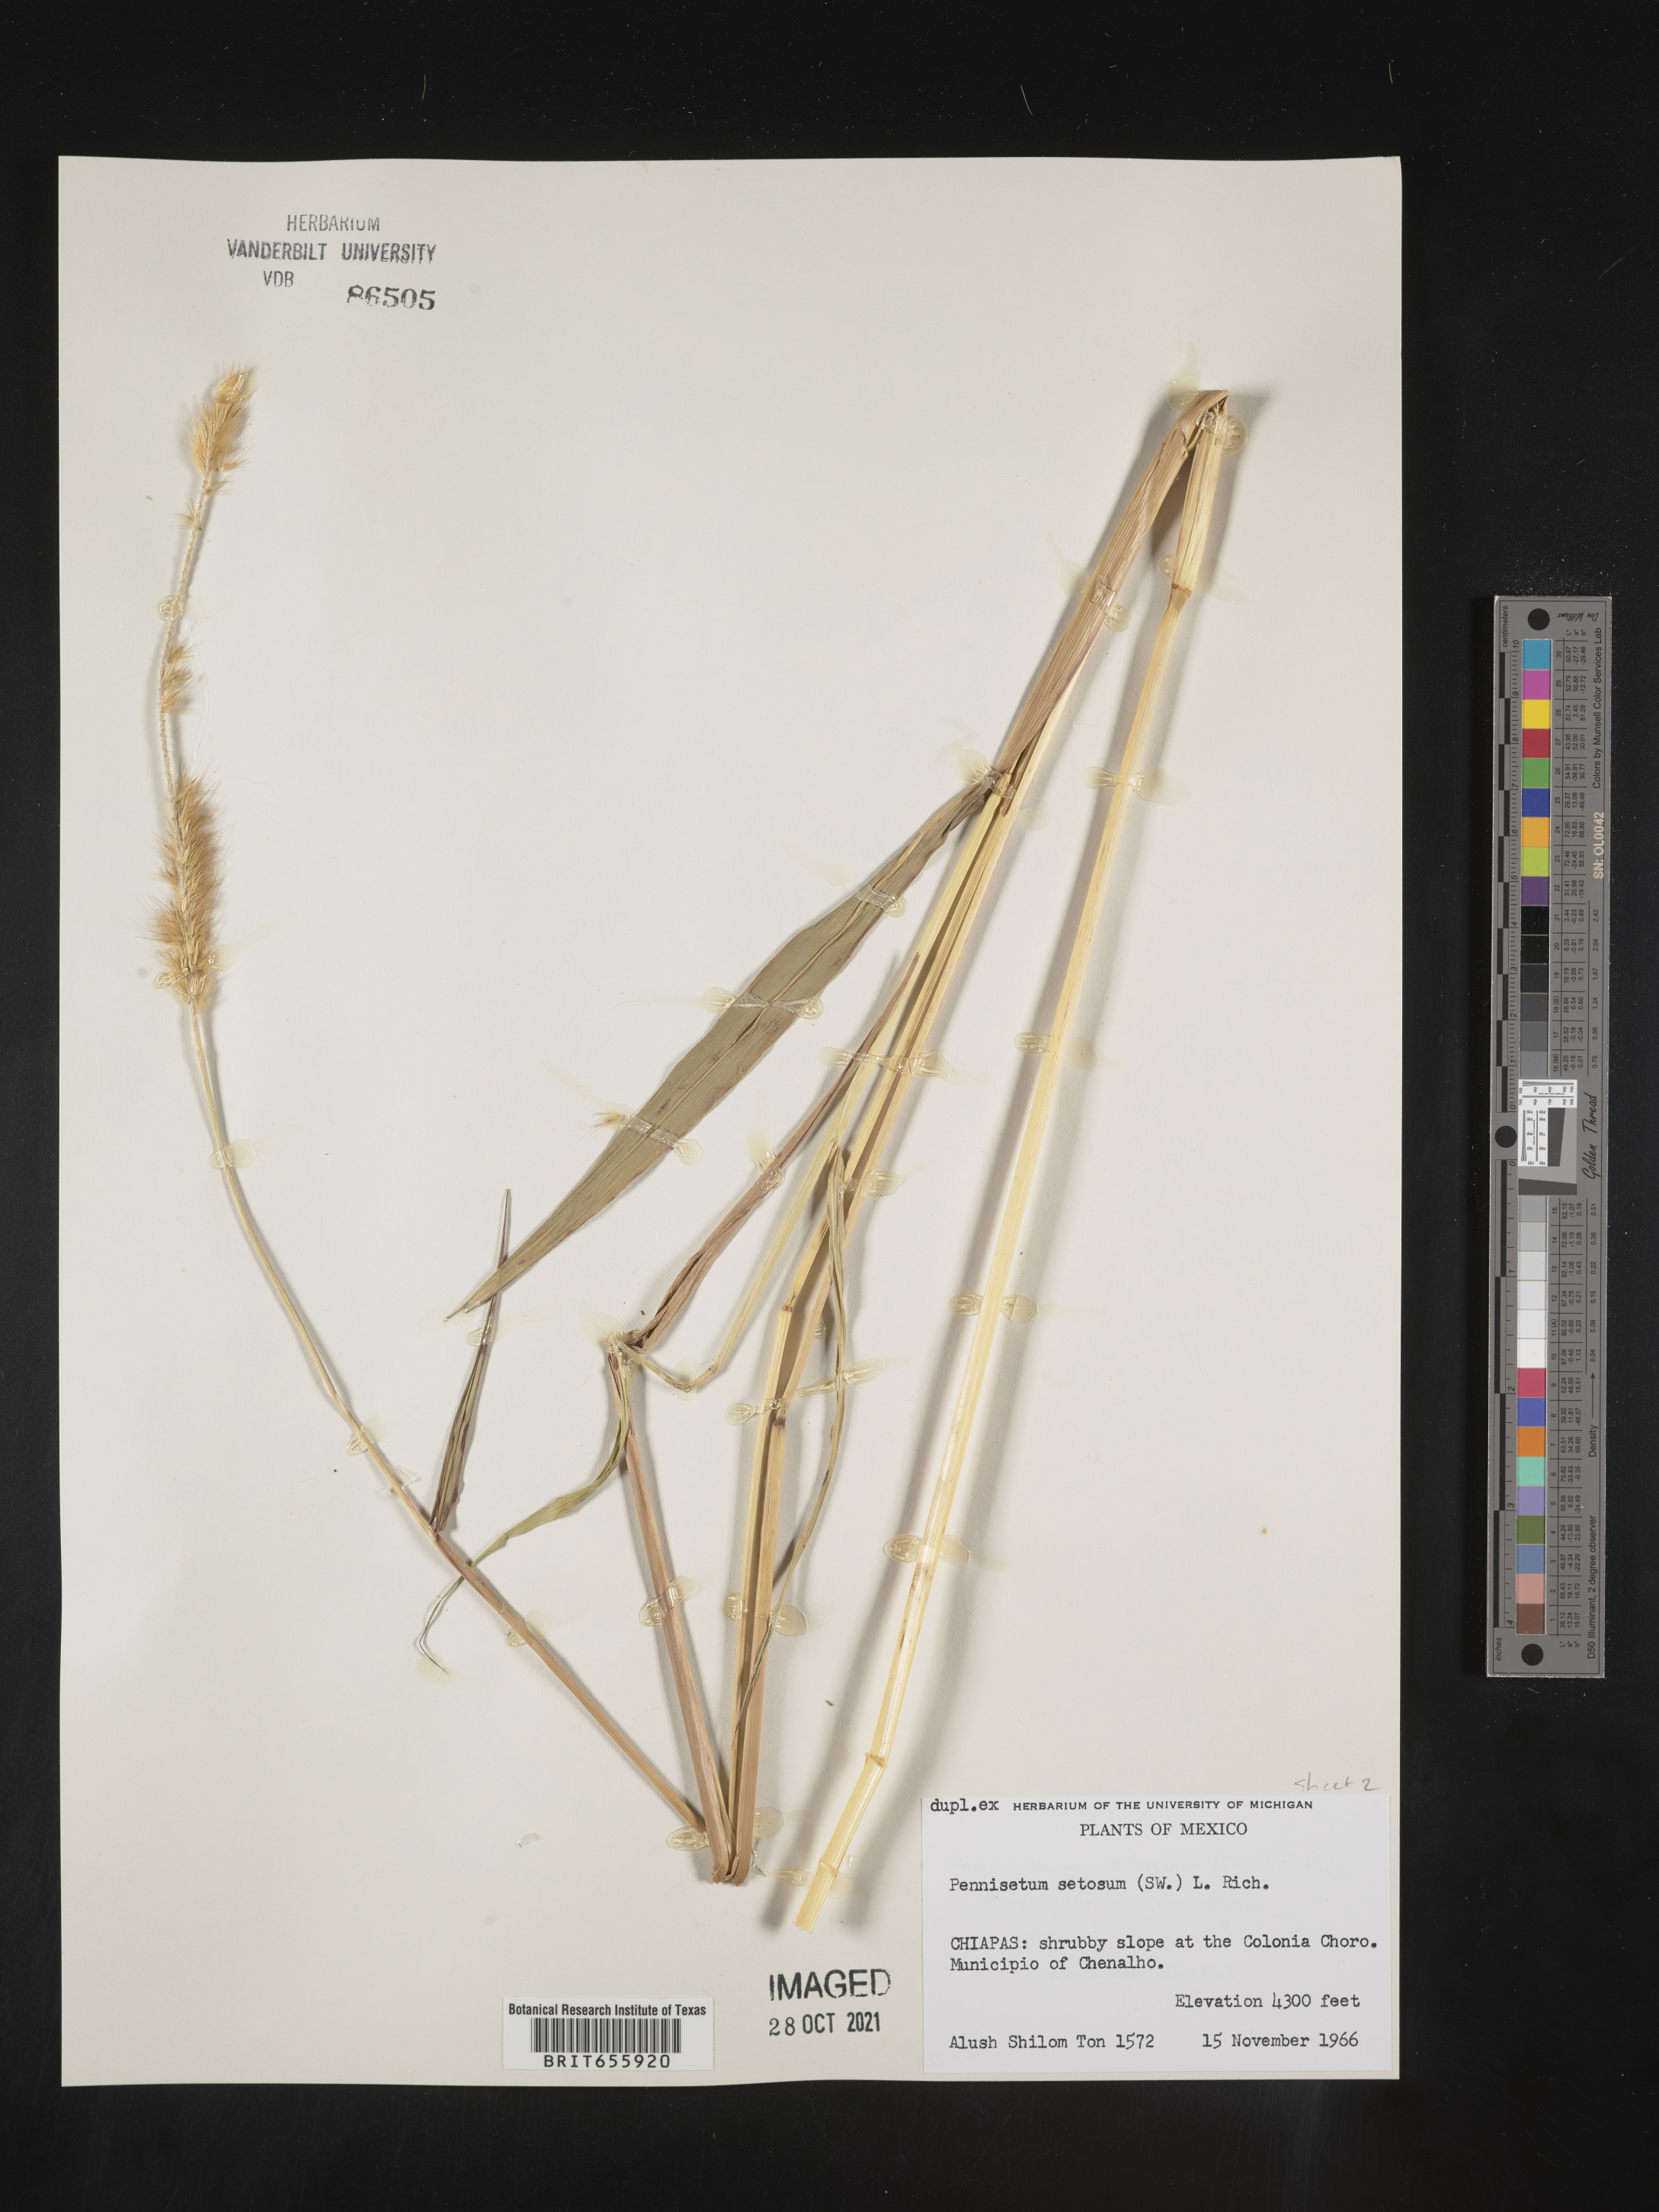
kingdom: Plantae
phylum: Tracheophyta
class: Liliopsida
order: Poales
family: Poaceae
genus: Cenchrus
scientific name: Cenchrus Pennisetum spec
